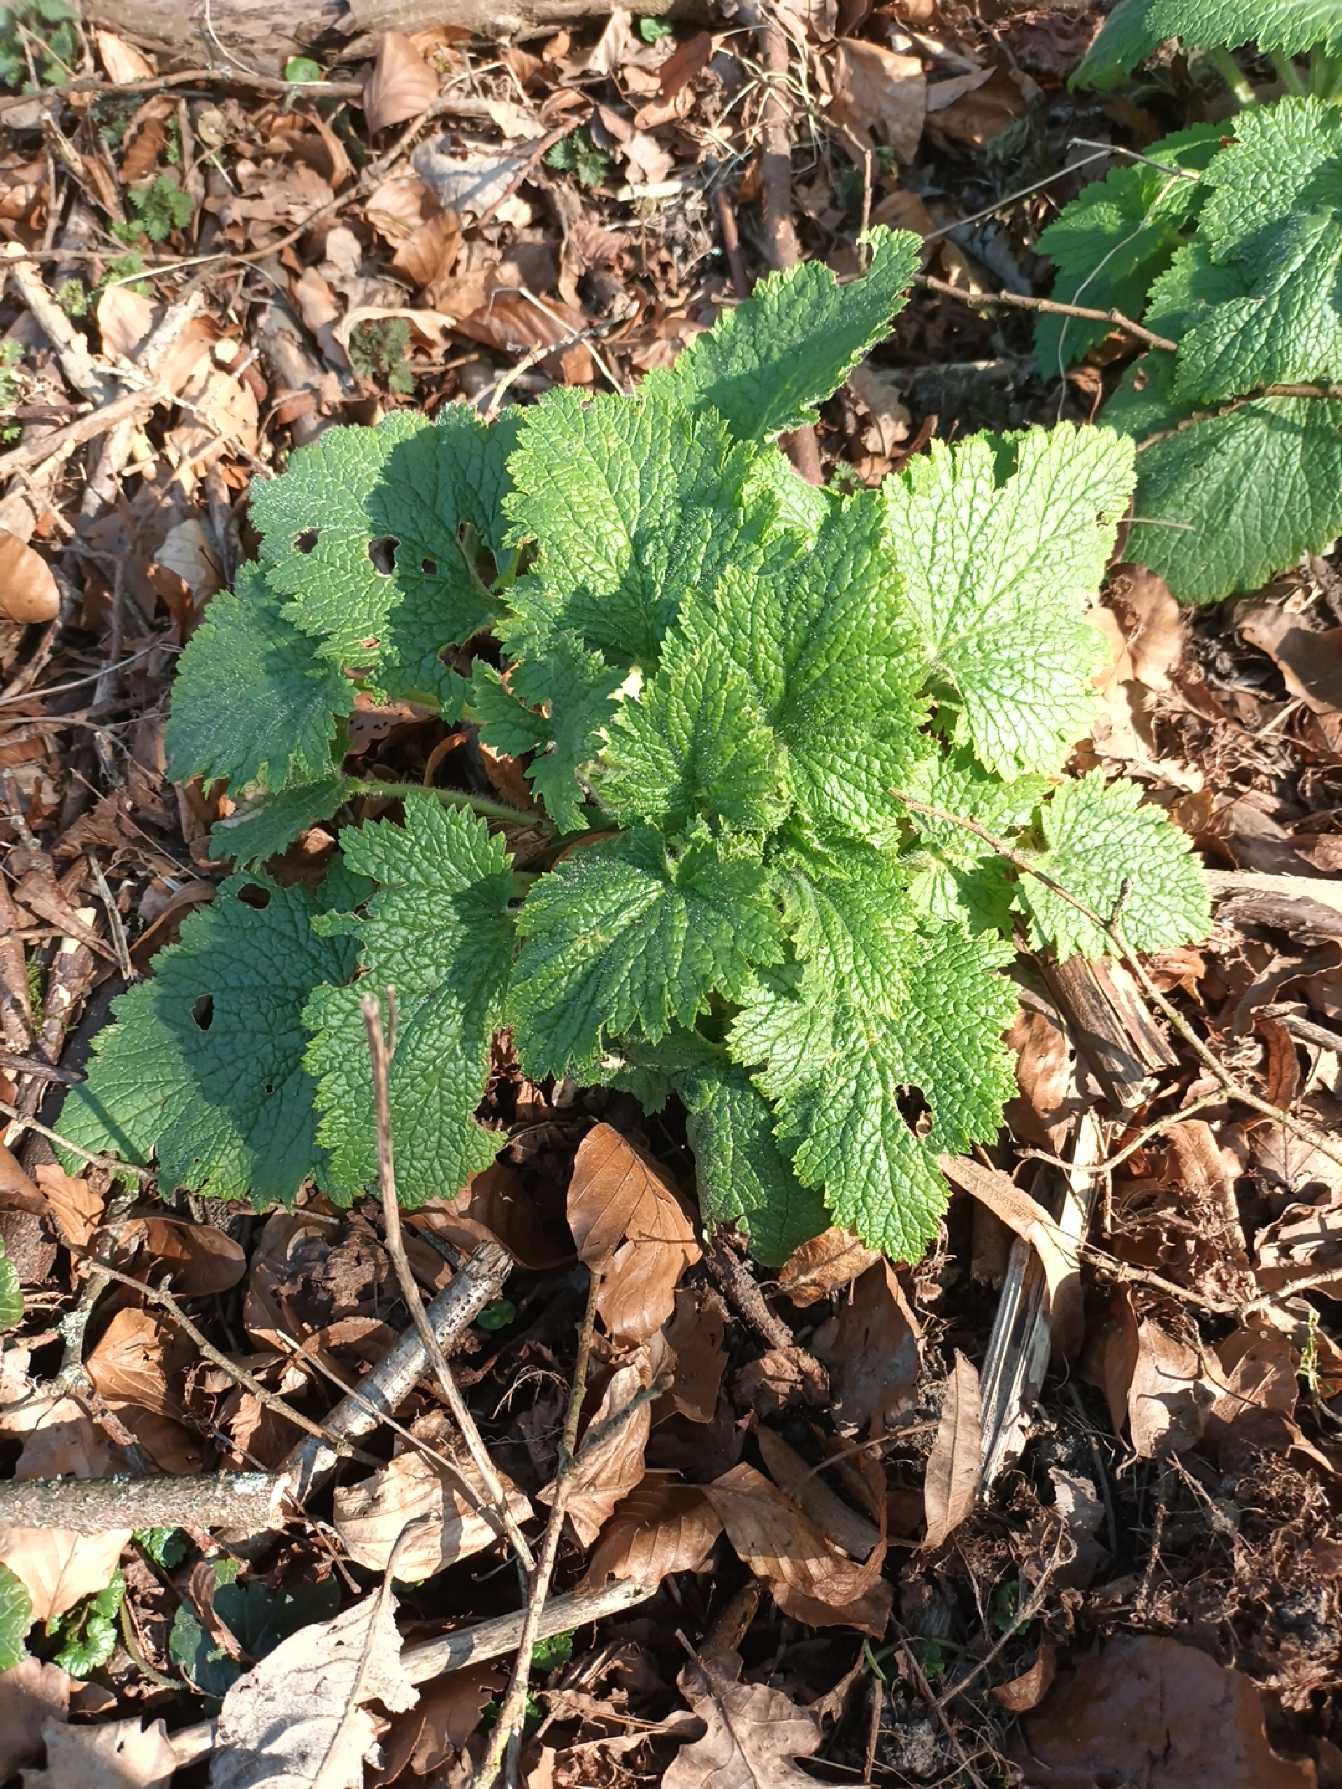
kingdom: Plantae
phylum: Tracheophyta
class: Magnoliopsida
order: Lamiales
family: Scrophulariaceae
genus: Scrophularia
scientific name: Scrophularia vernalis
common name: Vår-brunrod
